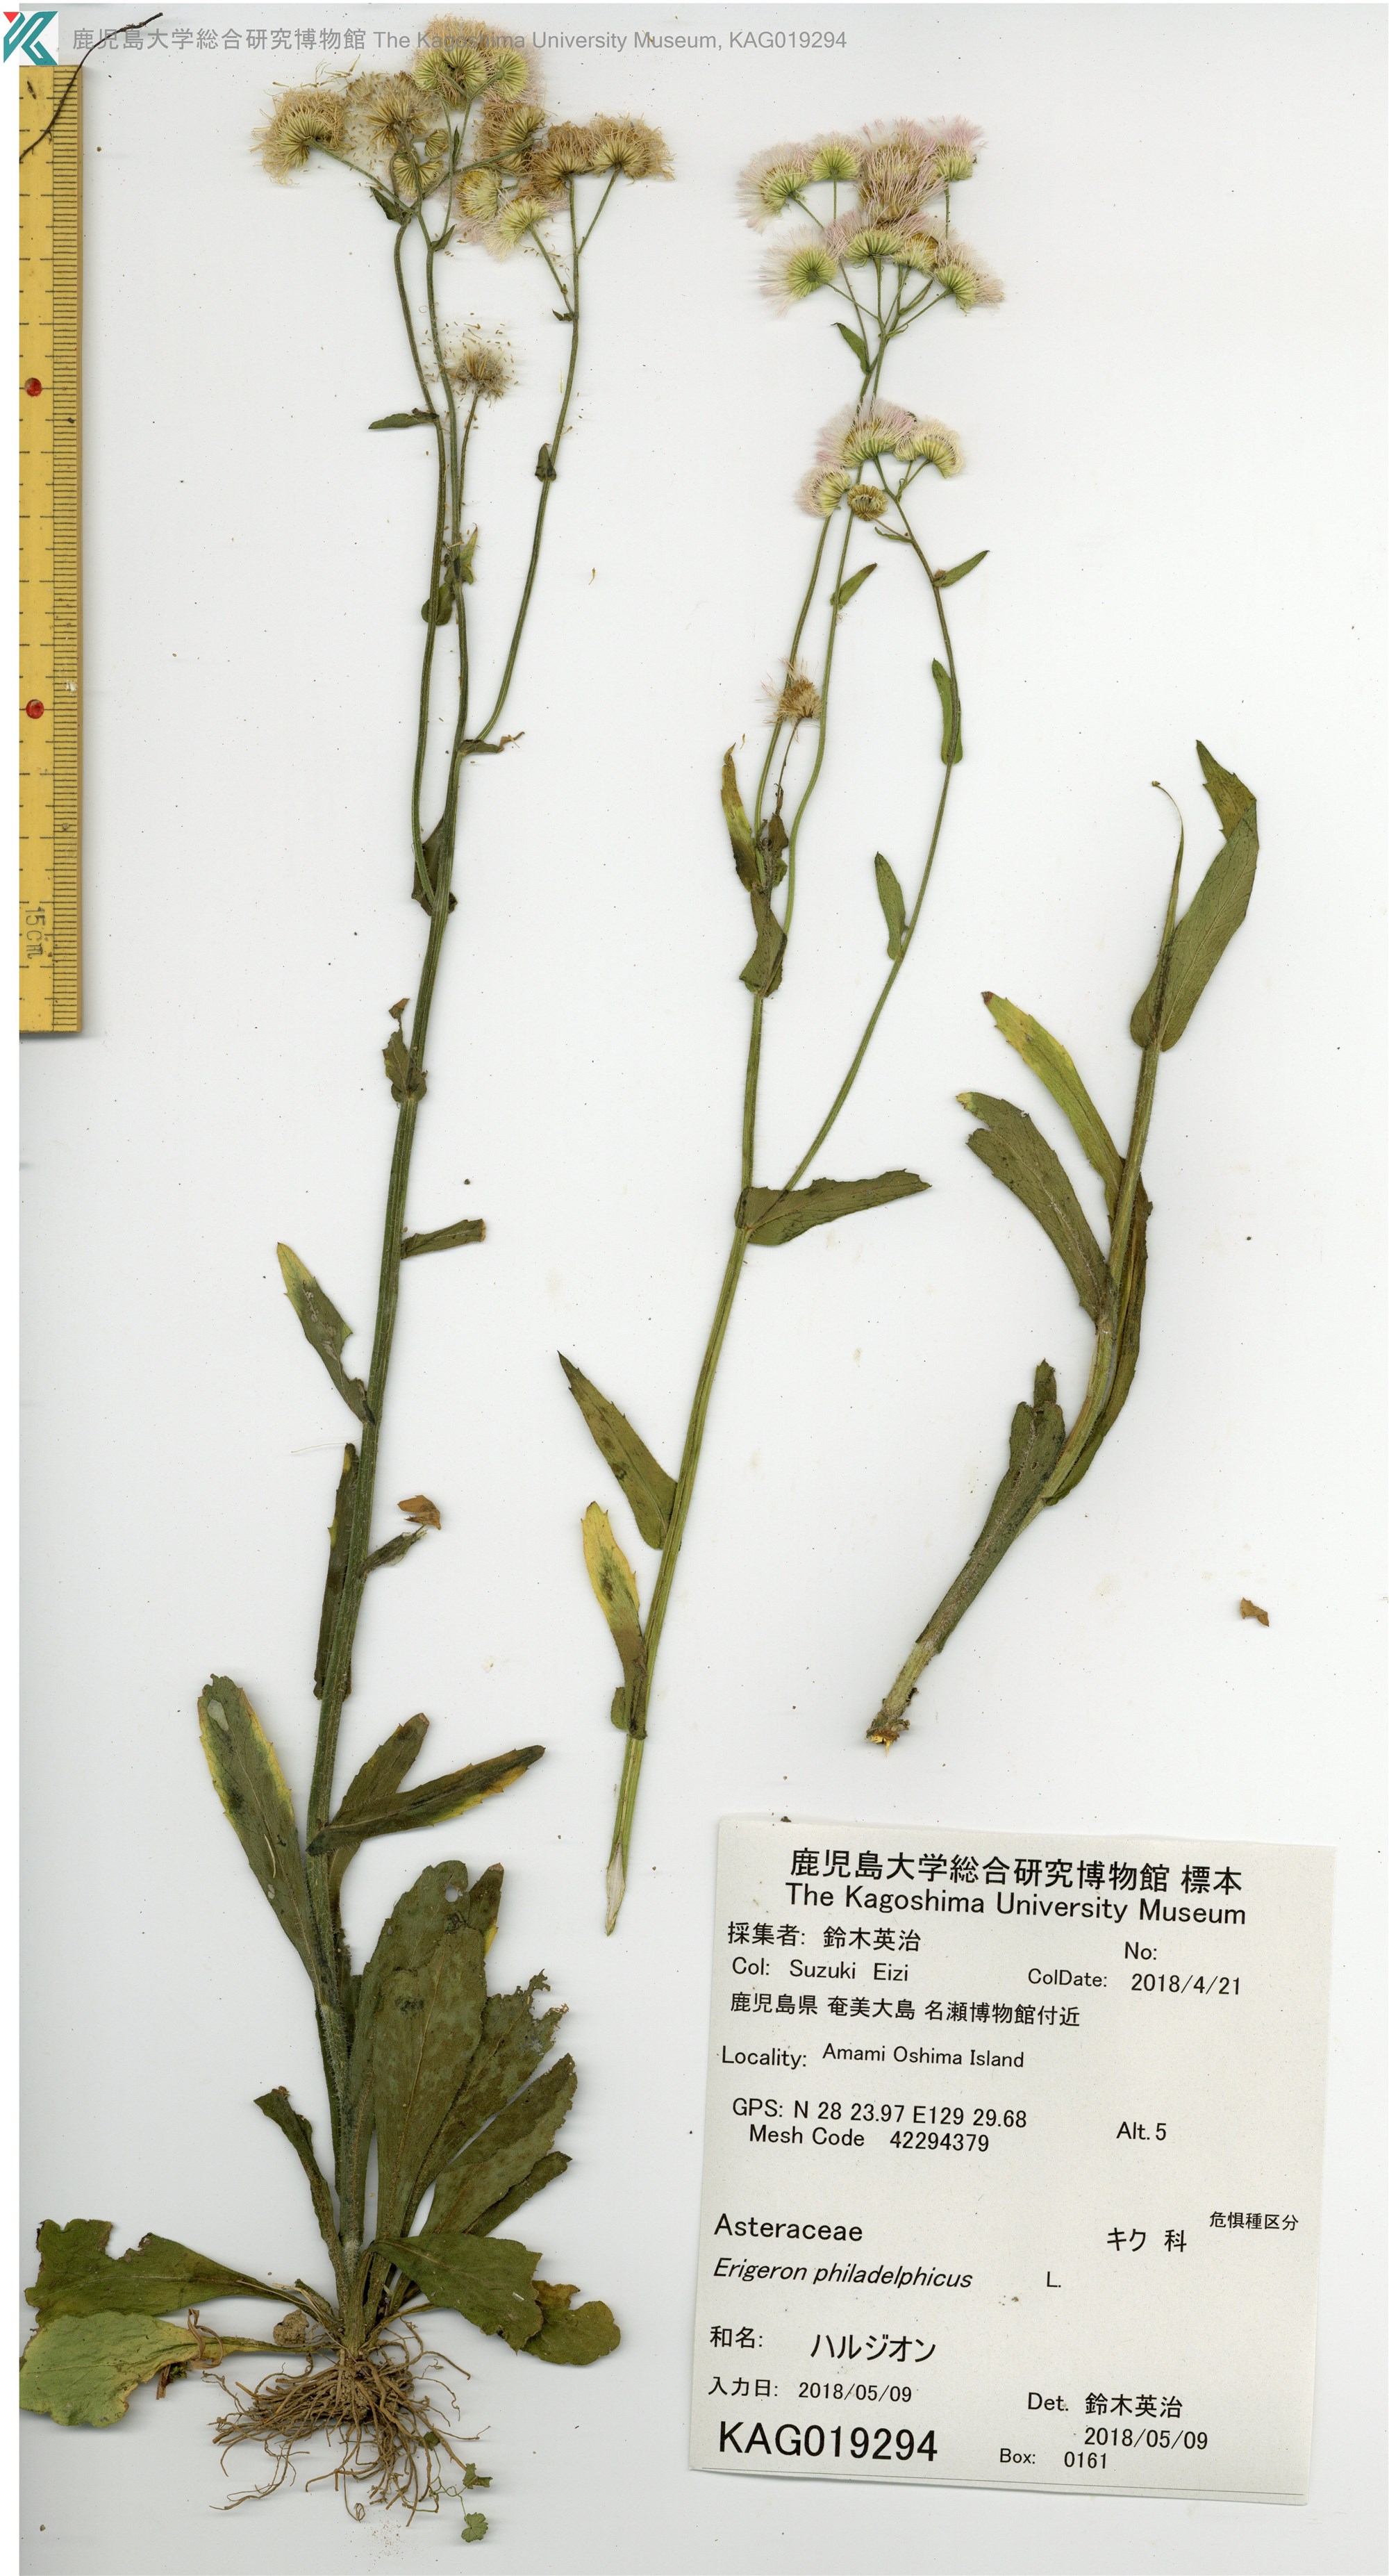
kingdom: Plantae
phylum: Tracheophyta
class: Magnoliopsida
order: Asterales
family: Asteraceae
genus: Erigeron
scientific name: Erigeron philadelphicus
